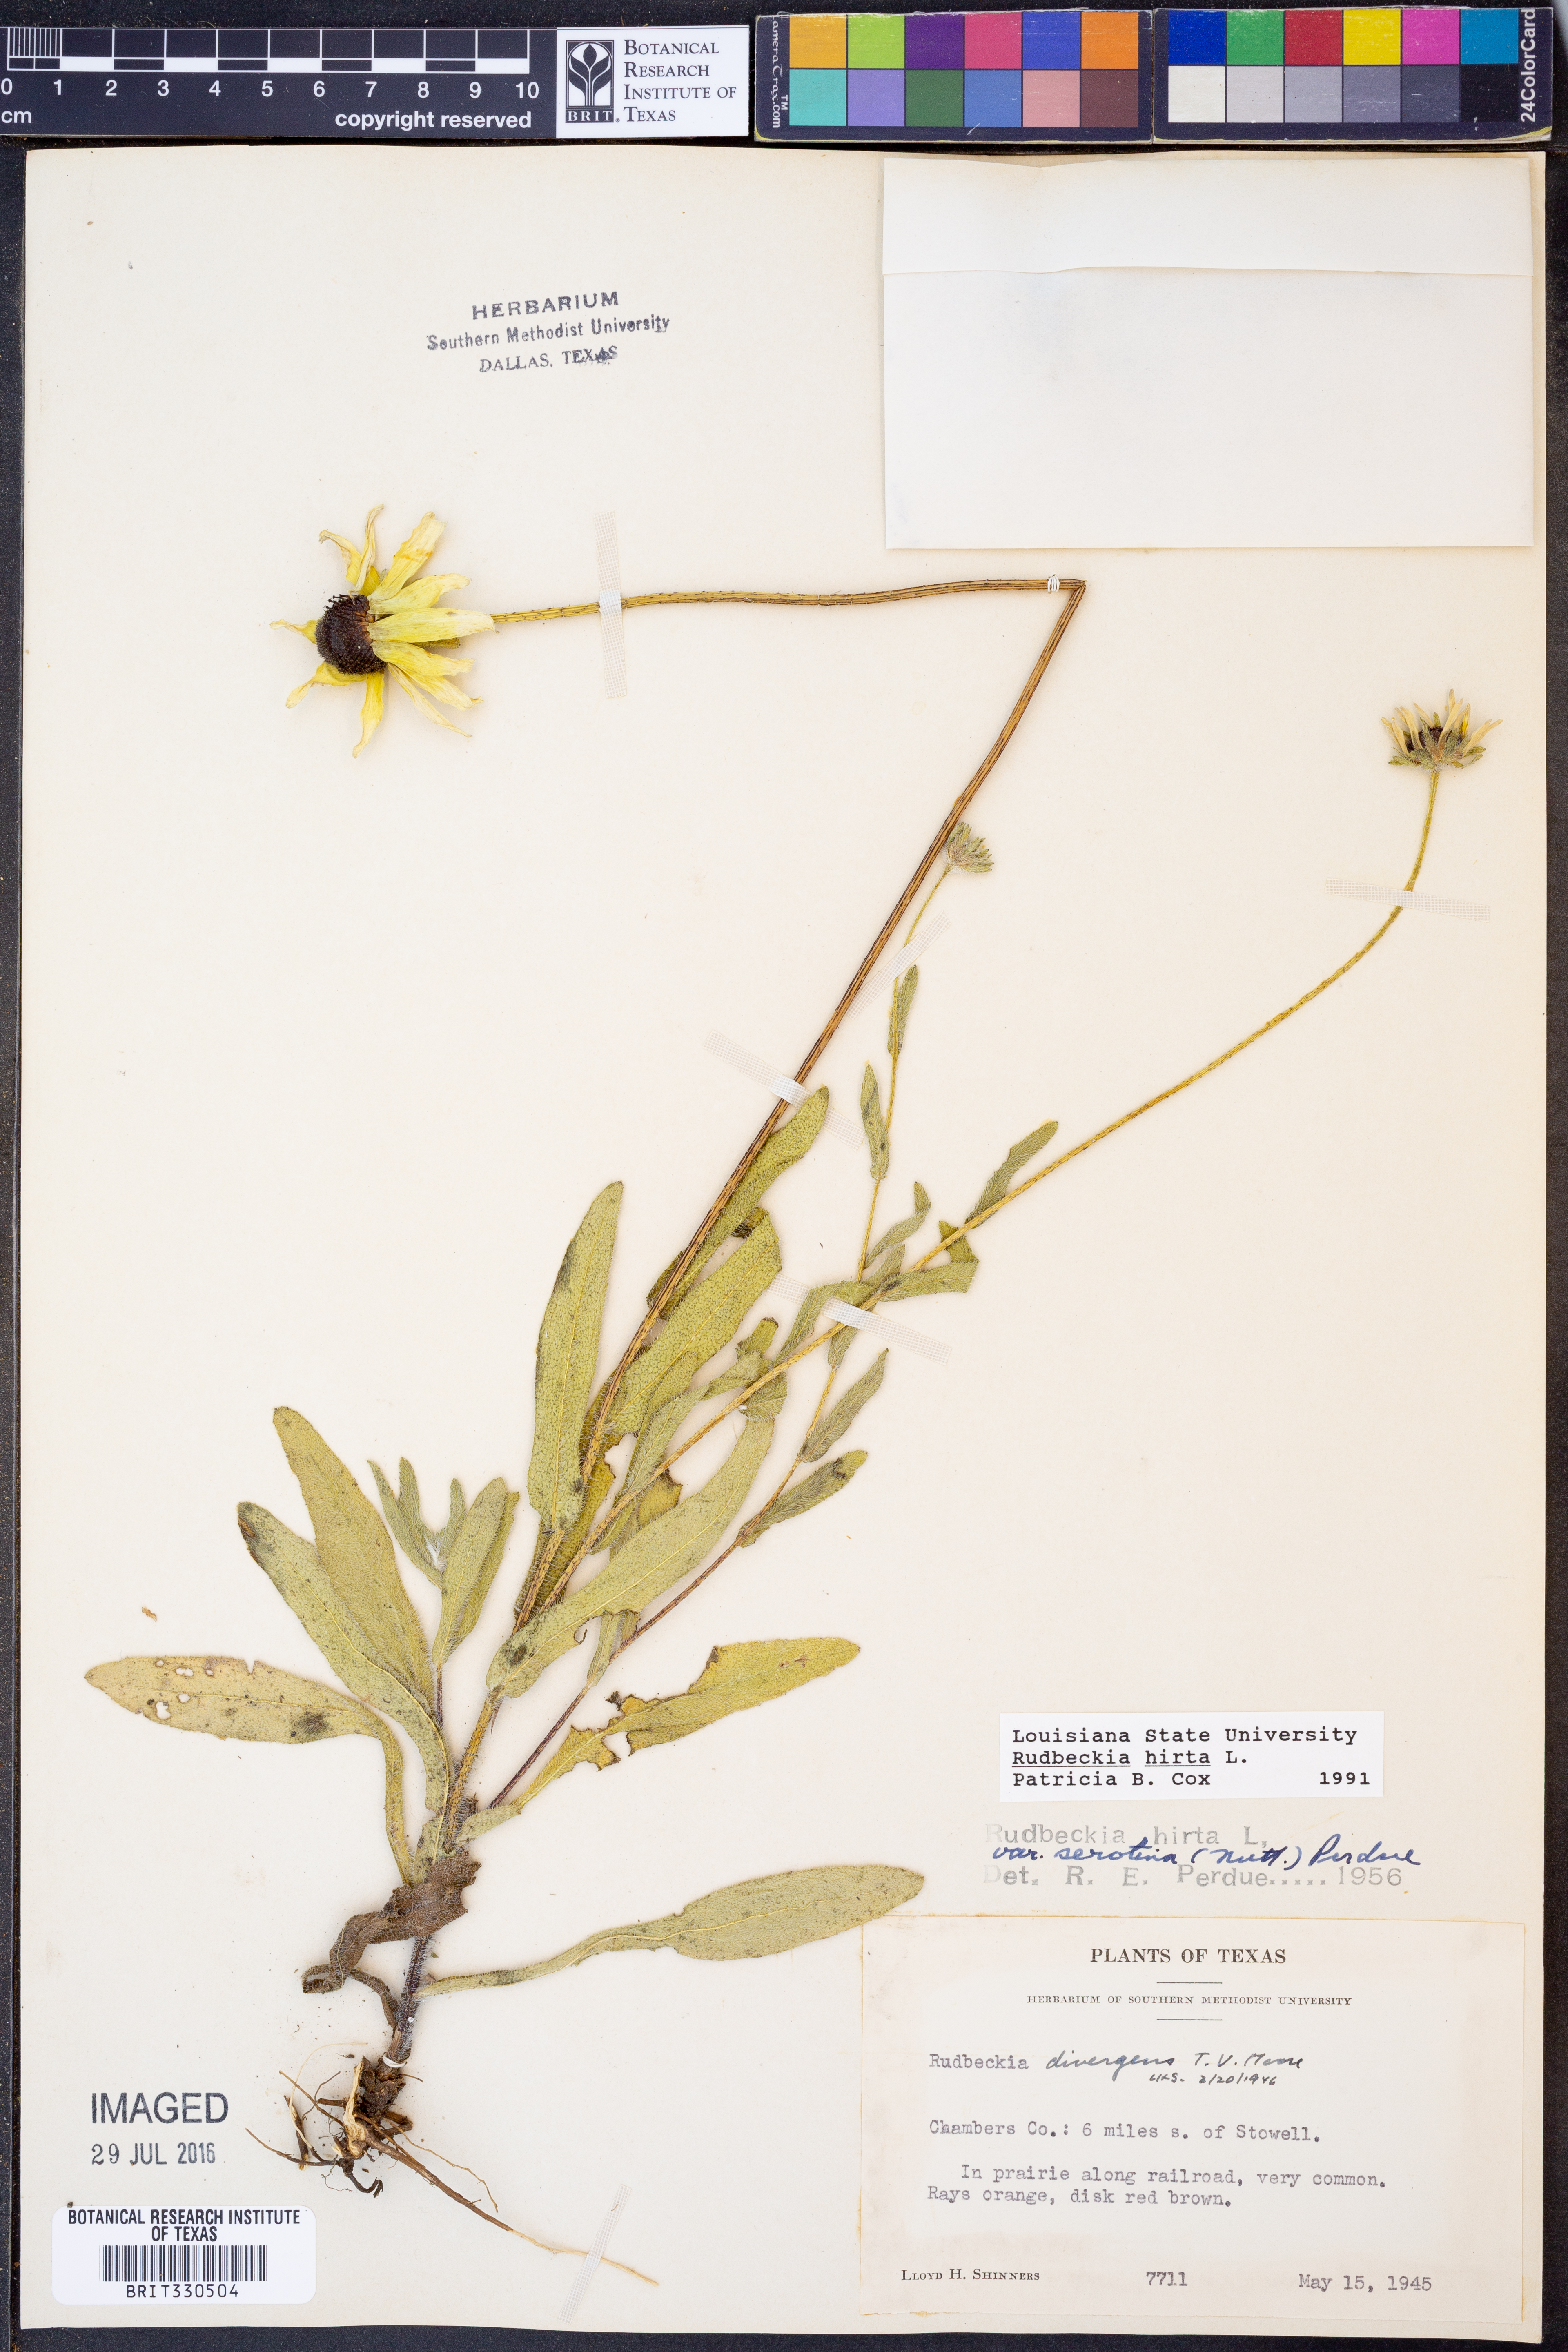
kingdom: Plantae
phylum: Tracheophyta
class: Magnoliopsida
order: Asterales
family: Asteraceae
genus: Rudbeckia
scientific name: Rudbeckia hirta
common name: Black-eyed-susan
